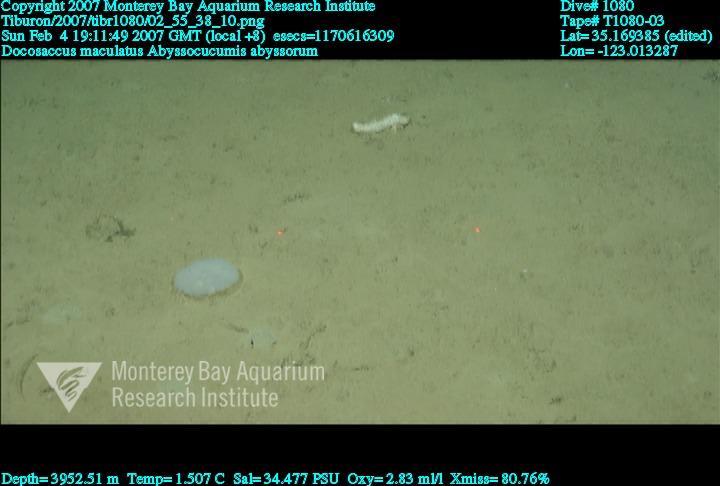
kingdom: Animalia
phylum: Porifera
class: Hexactinellida
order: Lyssacinosida
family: Euplectellidae
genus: Docosaccus
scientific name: Docosaccus maculatus
